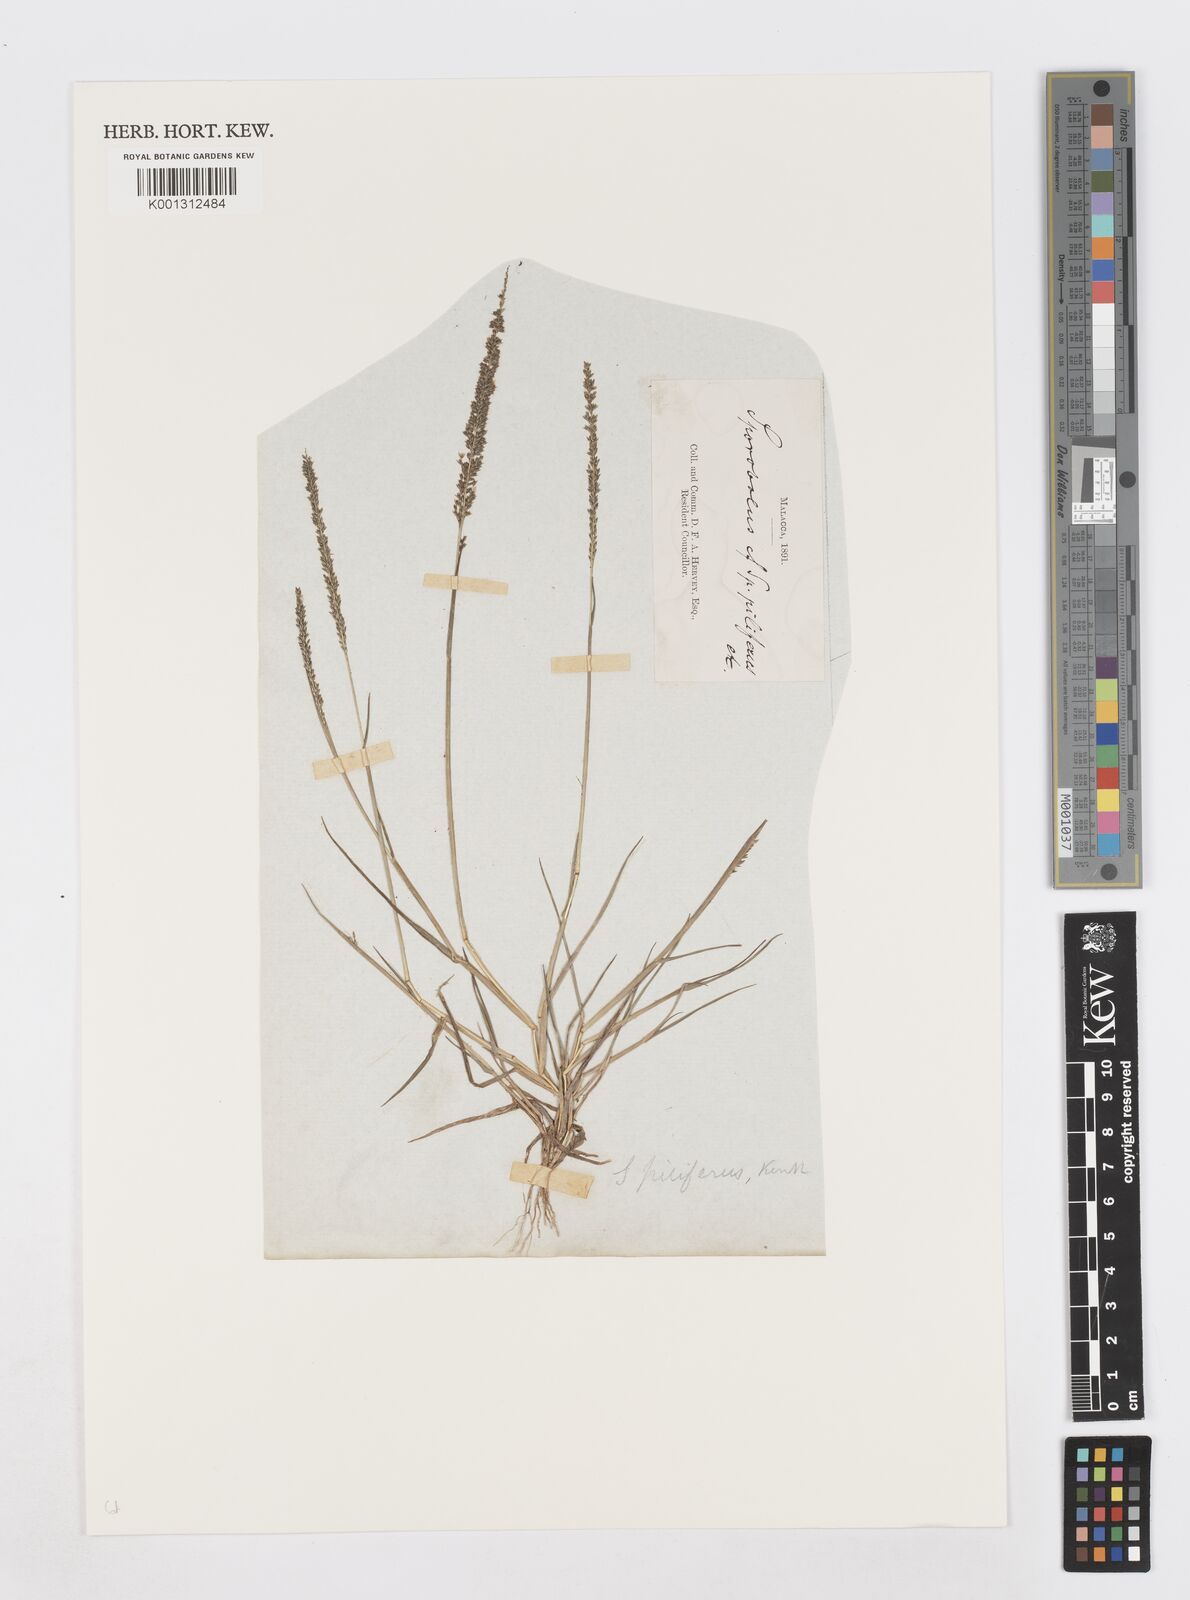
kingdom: Plantae
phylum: Tracheophyta
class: Liliopsida
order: Poales
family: Poaceae
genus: Sporobolus
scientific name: Sporobolus pilifer
